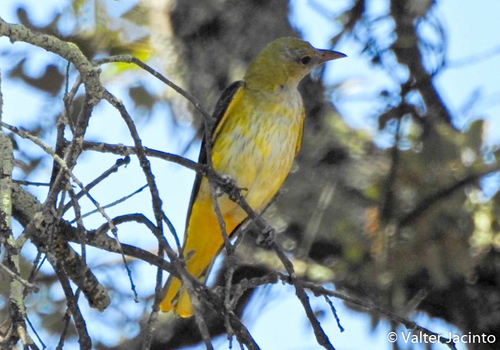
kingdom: Animalia
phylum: Chordata
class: Aves
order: Passeriformes
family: Oriolidae
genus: Oriolus
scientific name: Oriolus oriolus
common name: Eurasian golden oriole
